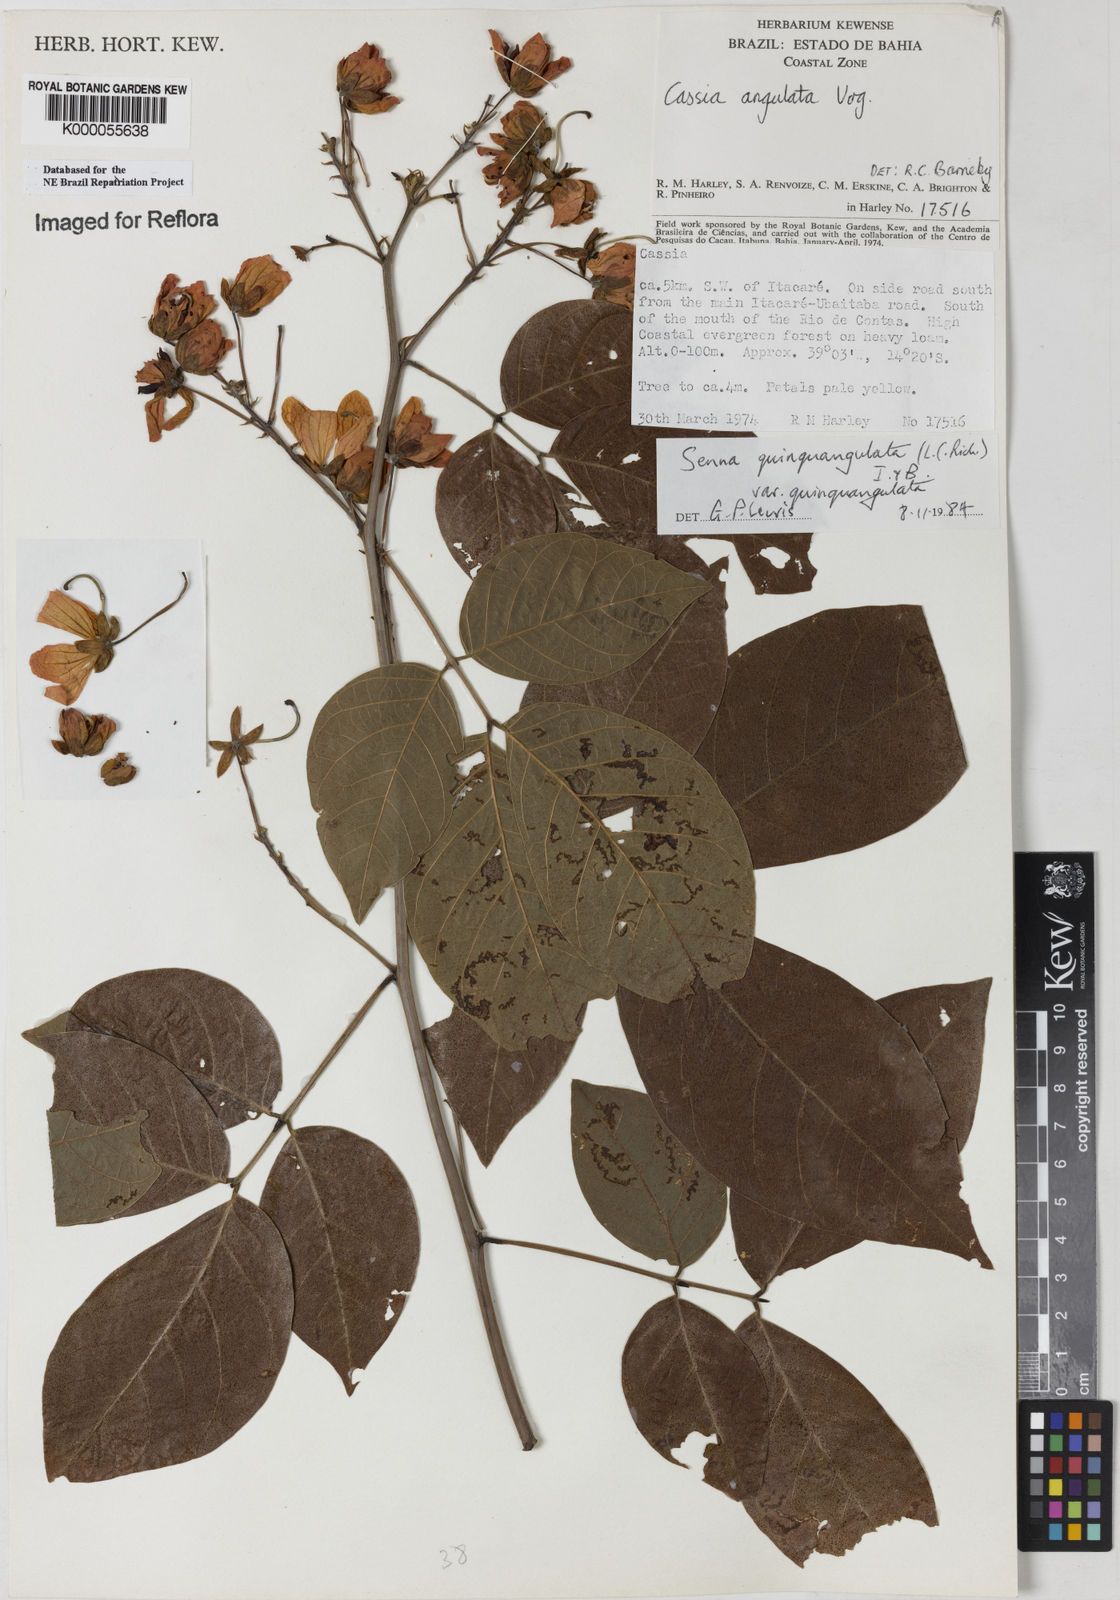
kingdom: Plantae
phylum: Tracheophyta
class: Magnoliopsida
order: Fabales
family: Fabaceae
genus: Senna
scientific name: Senna quinquangulata
